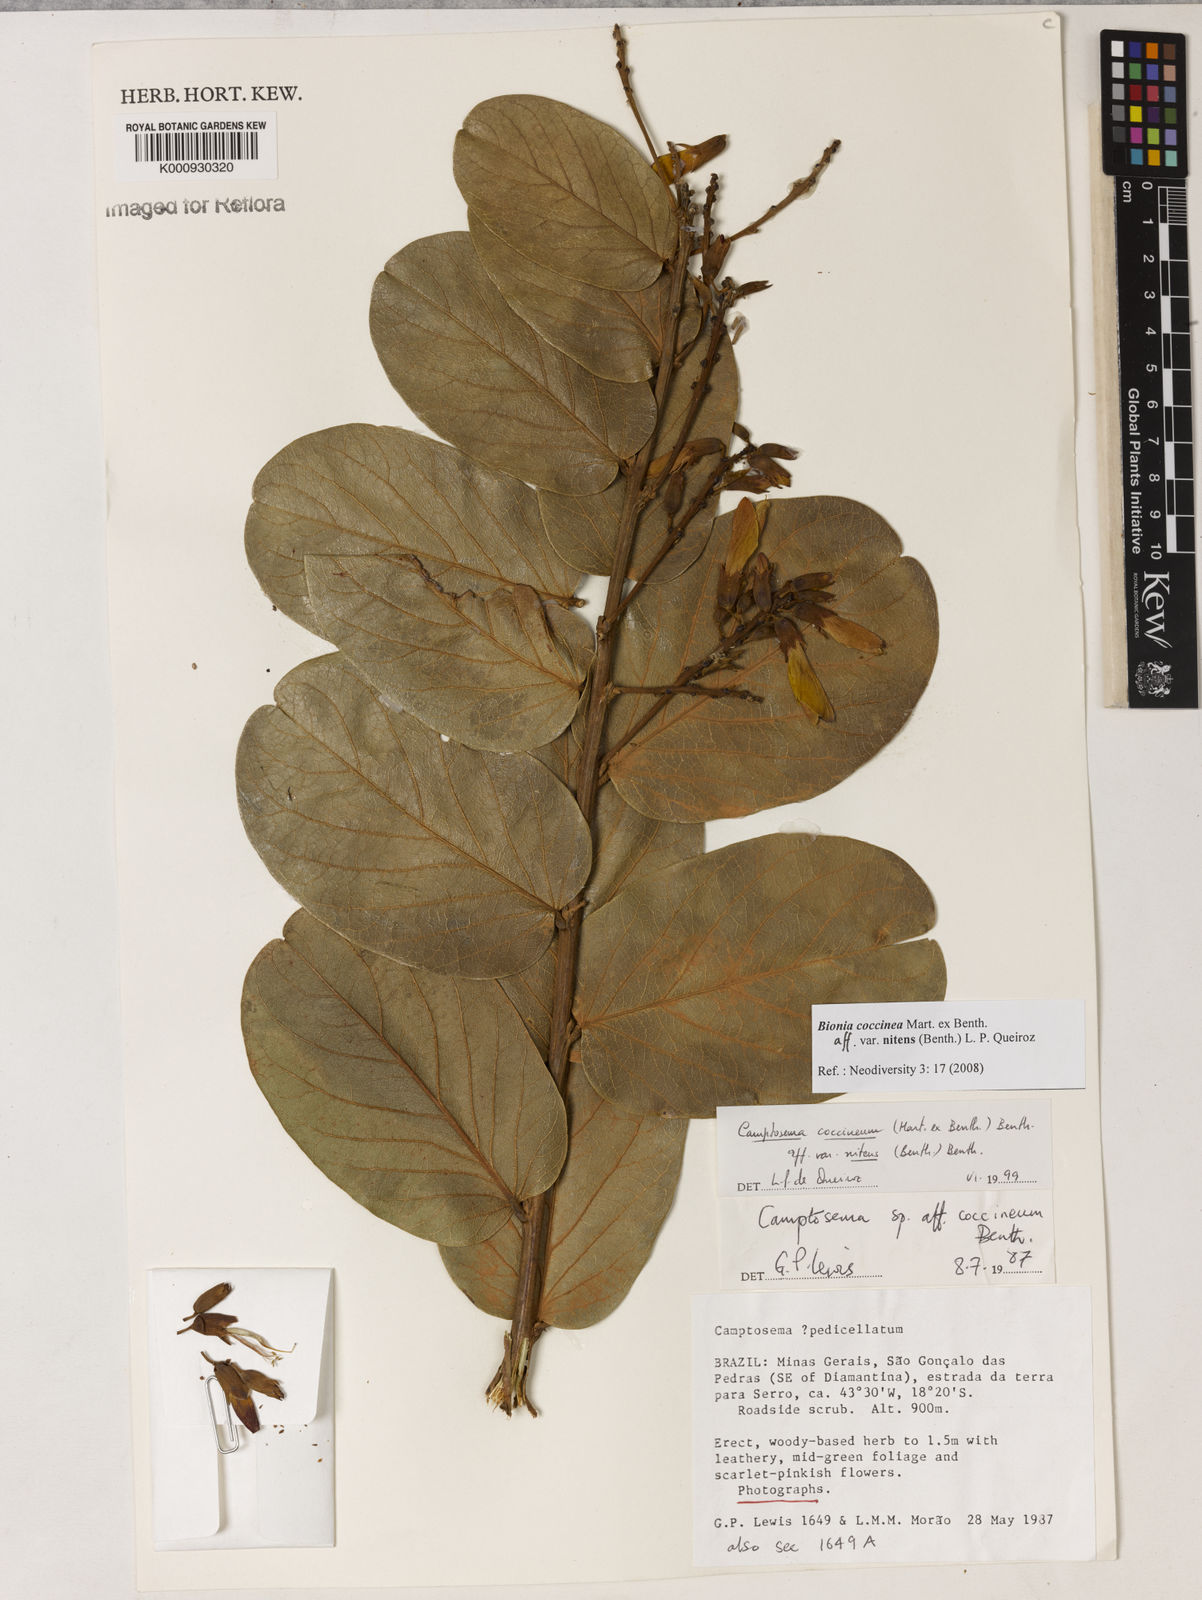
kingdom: Plantae
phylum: Tracheophyta
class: Magnoliopsida
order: Fabales
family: Fabaceae
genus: Camptosema
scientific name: Camptosema coccineum
